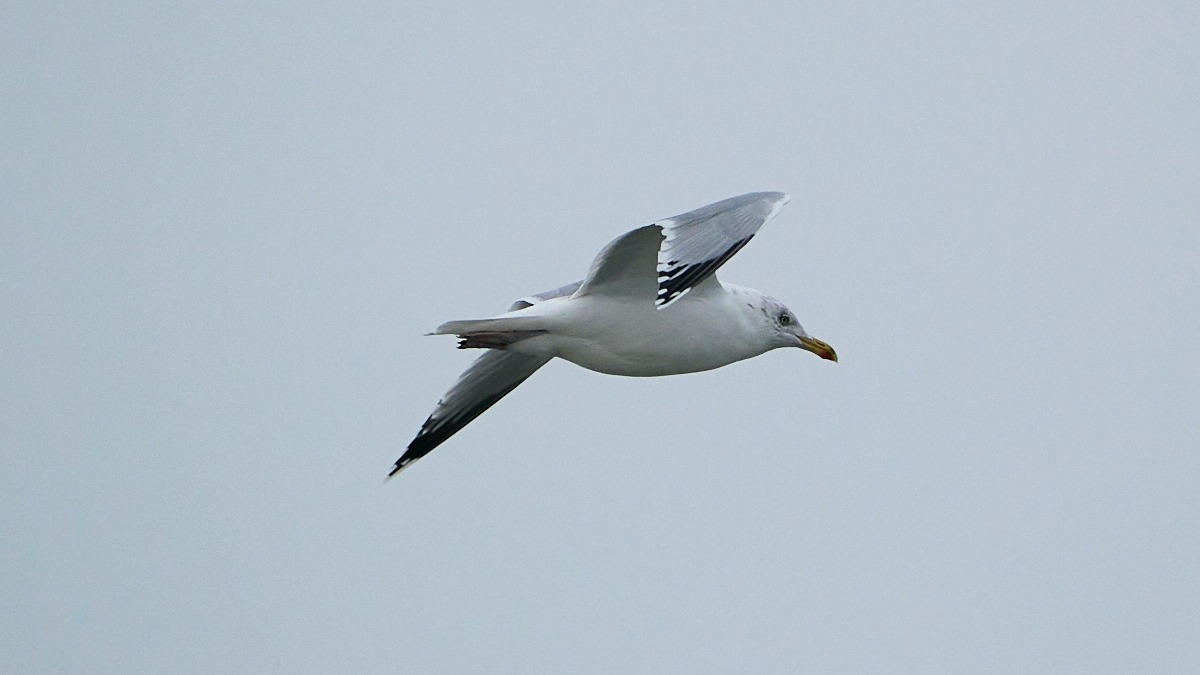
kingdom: Animalia
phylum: Chordata
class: Aves
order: Charadriiformes
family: Laridae
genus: Larus
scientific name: Larus argentatus
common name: Sølvmåge
